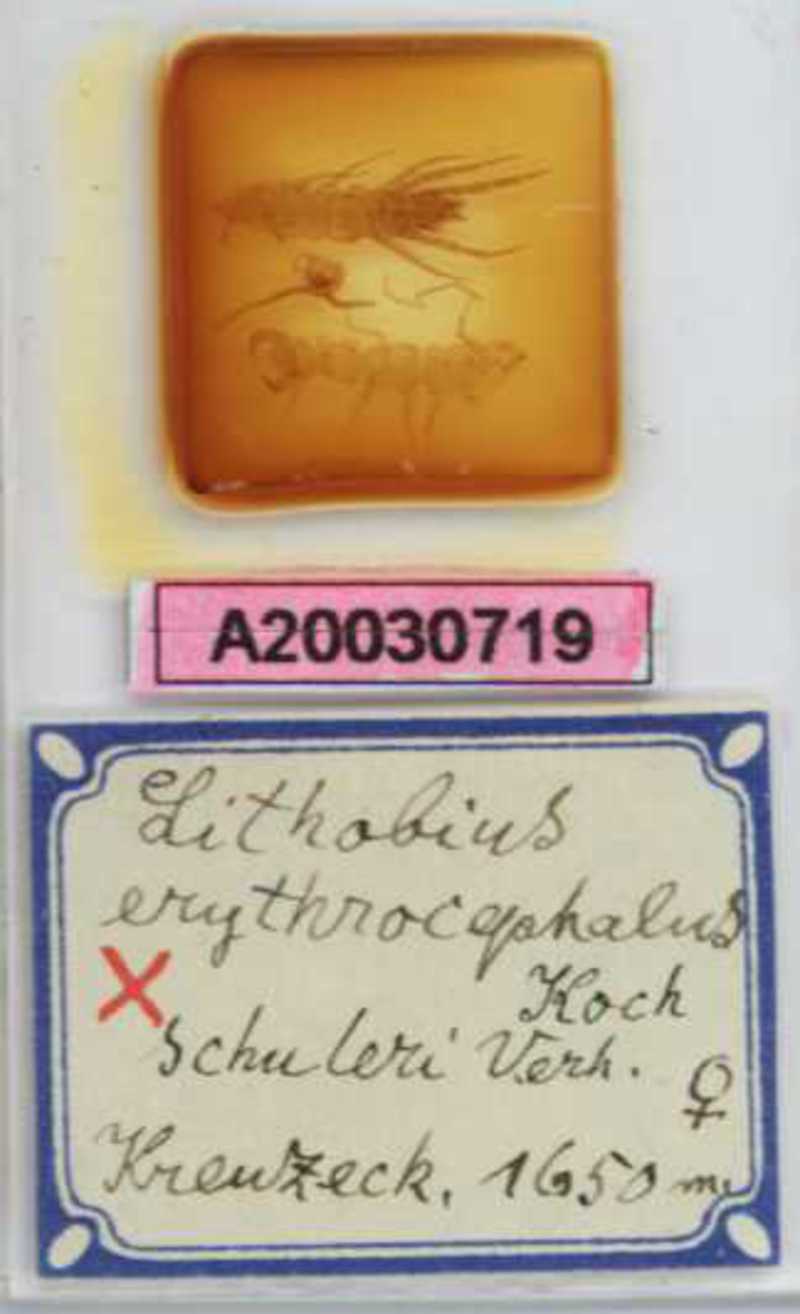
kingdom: Animalia
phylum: Arthropoda
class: Chilopoda
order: Lithobiomorpha
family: Lithobiidae
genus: Lithobius
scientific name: Lithobius erythrocephalus
